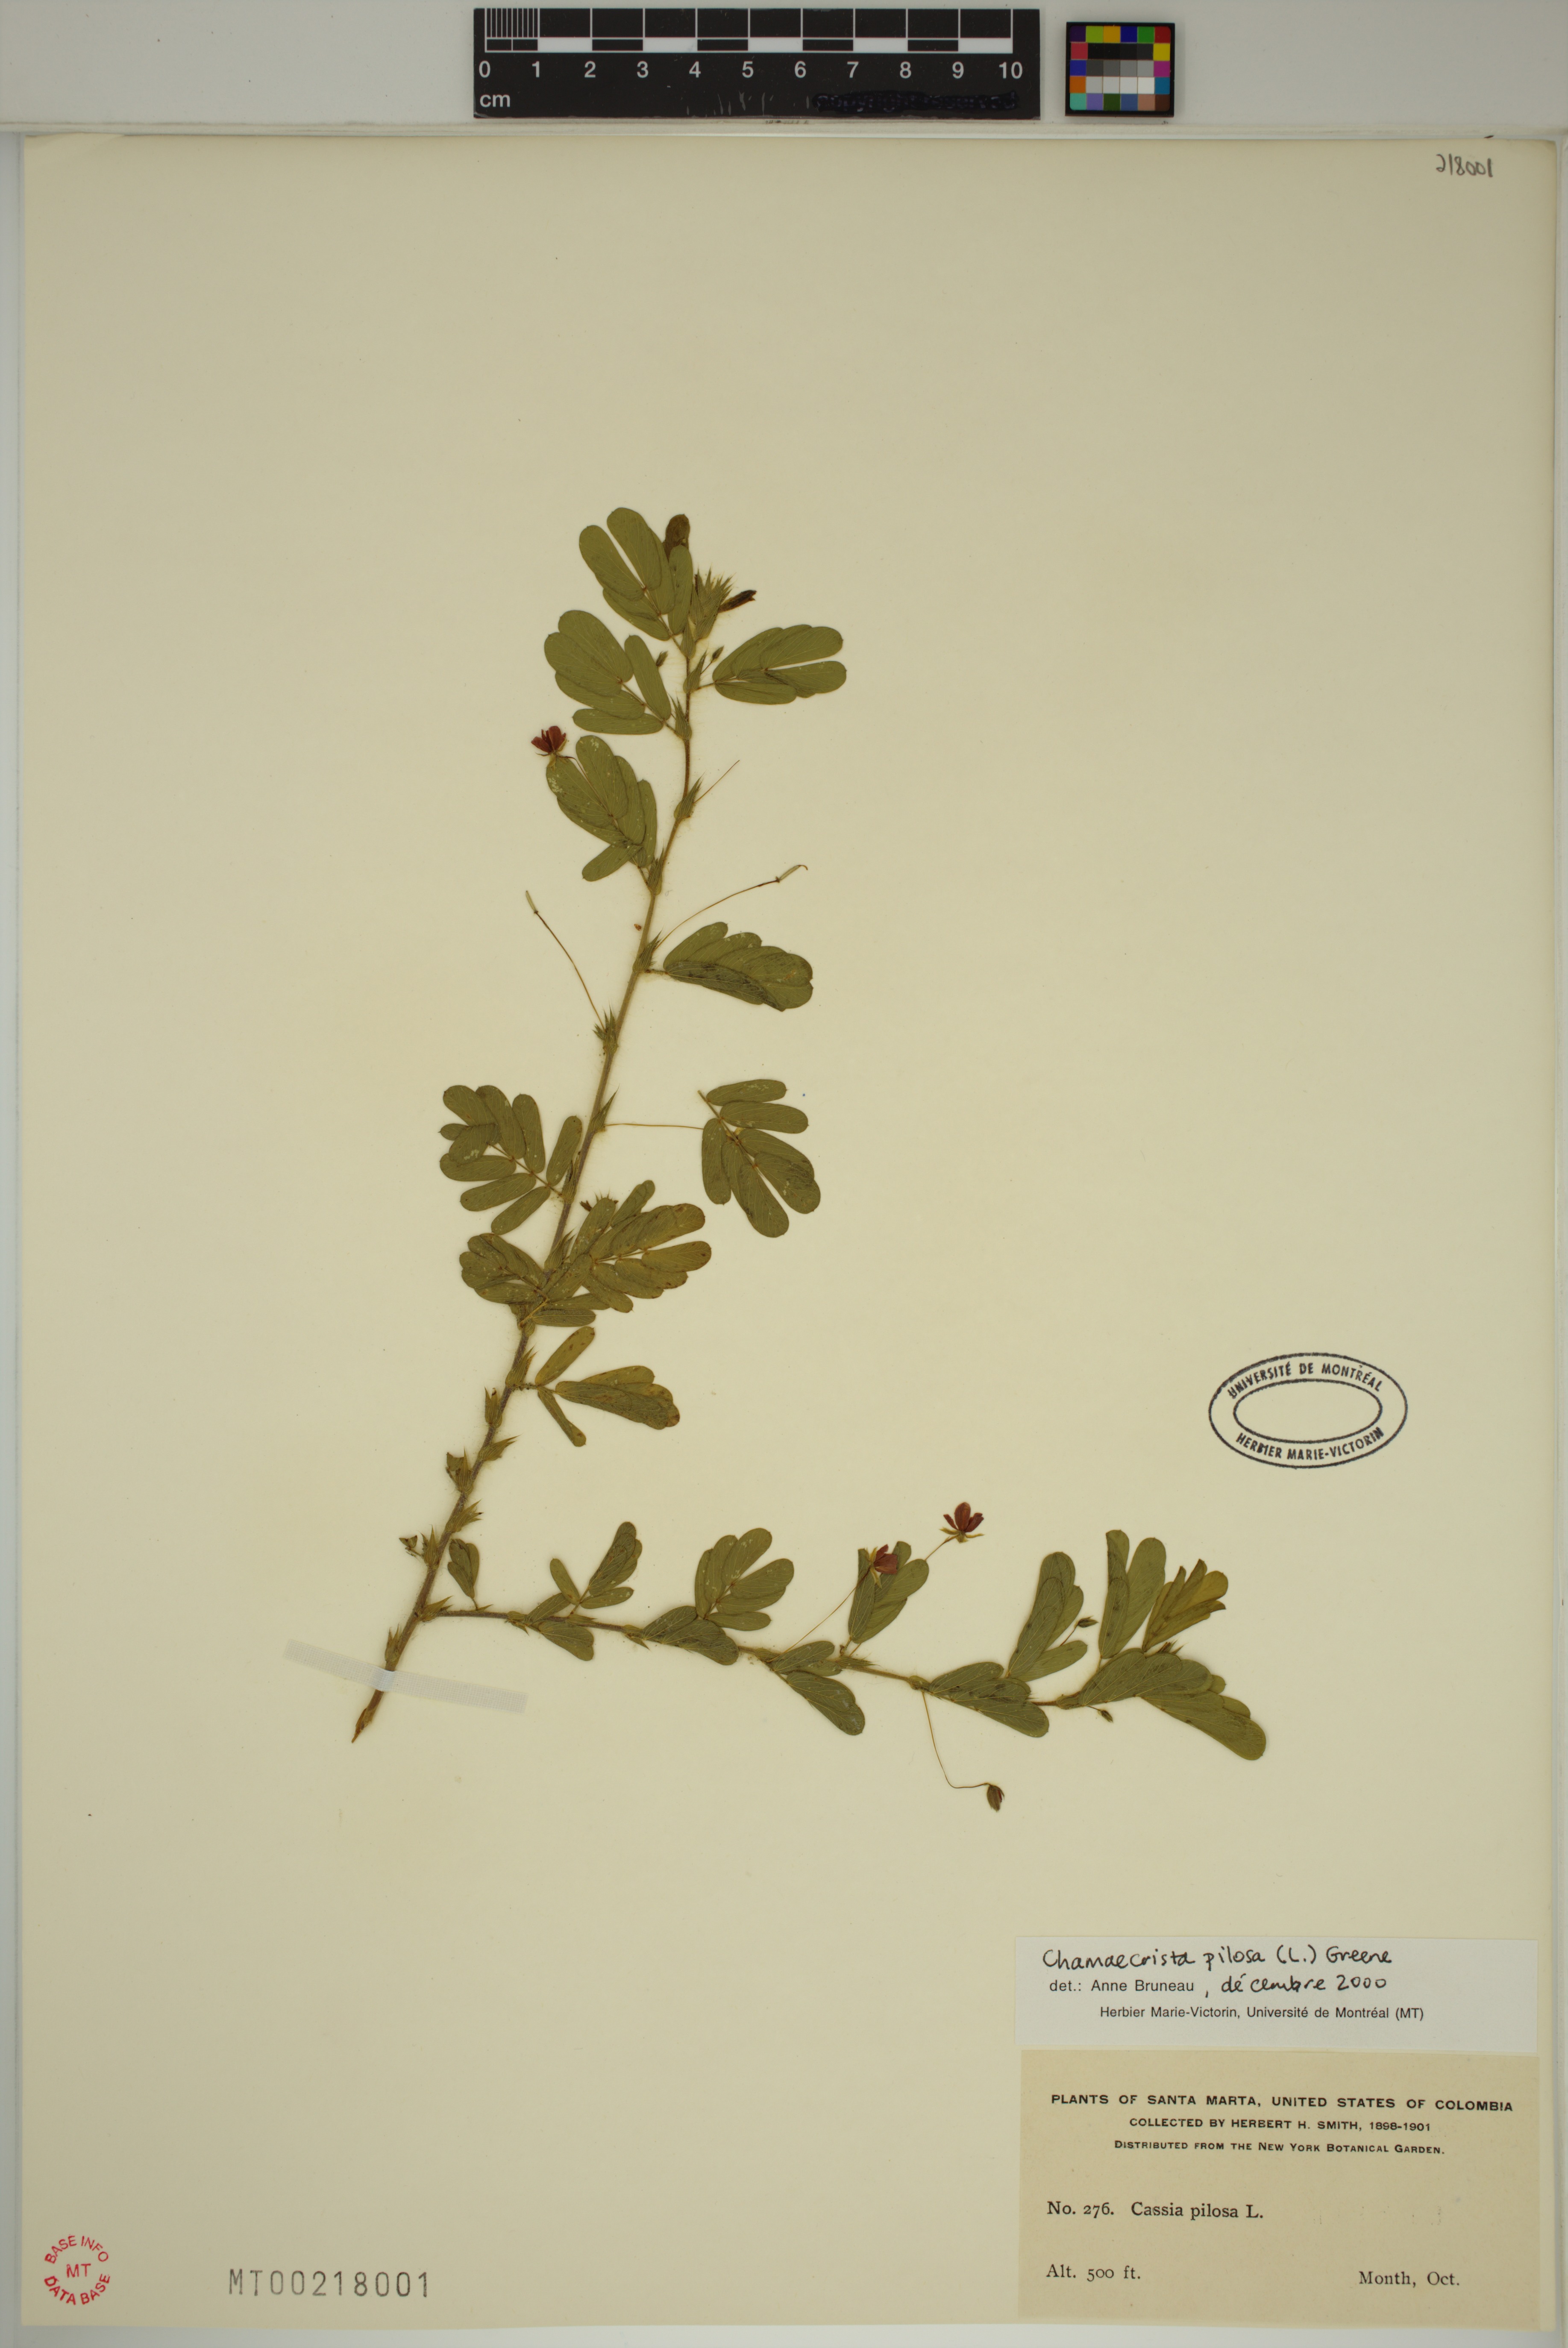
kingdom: Plantae
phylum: Tracheophyta
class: Magnoliopsida
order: Fabales
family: Fabaceae
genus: Chamaecrista
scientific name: Chamaecrista pilosa
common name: Hairy sensitive pea
